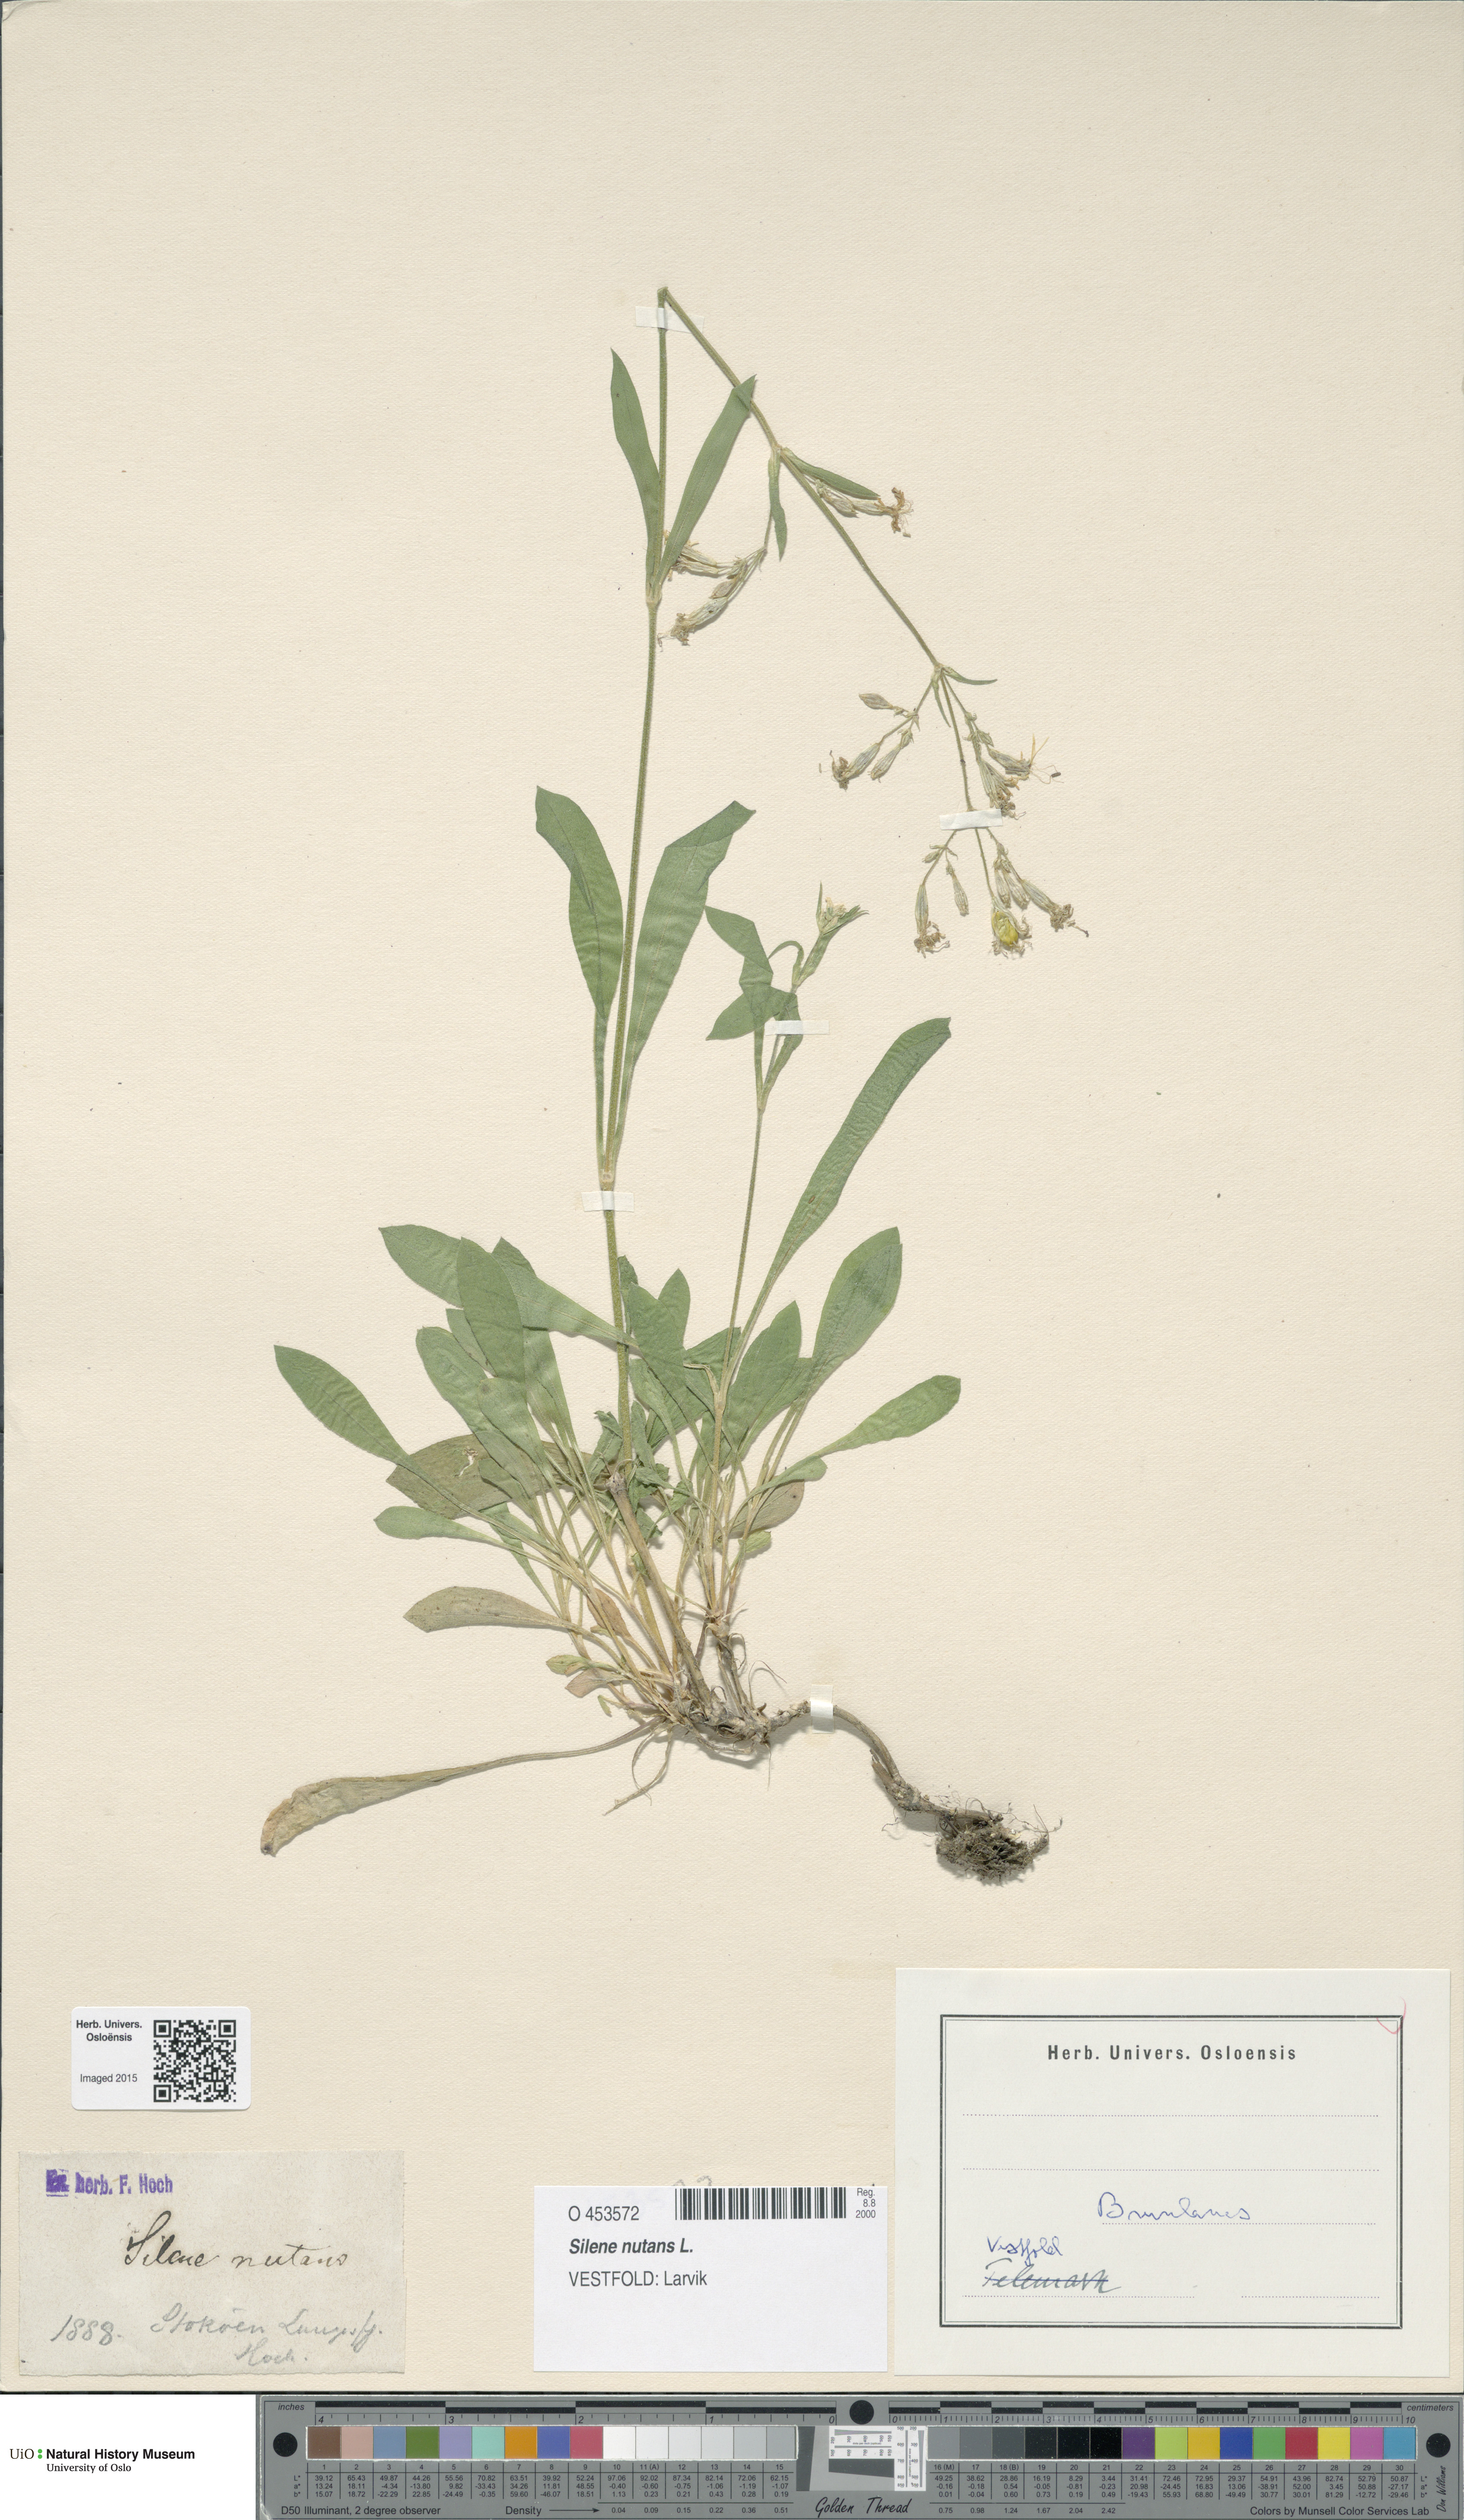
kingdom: Plantae
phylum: Tracheophyta
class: Magnoliopsida
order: Caryophyllales
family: Caryophyllaceae
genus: Silene
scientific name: Silene nutans
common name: Nottingham catchfly
